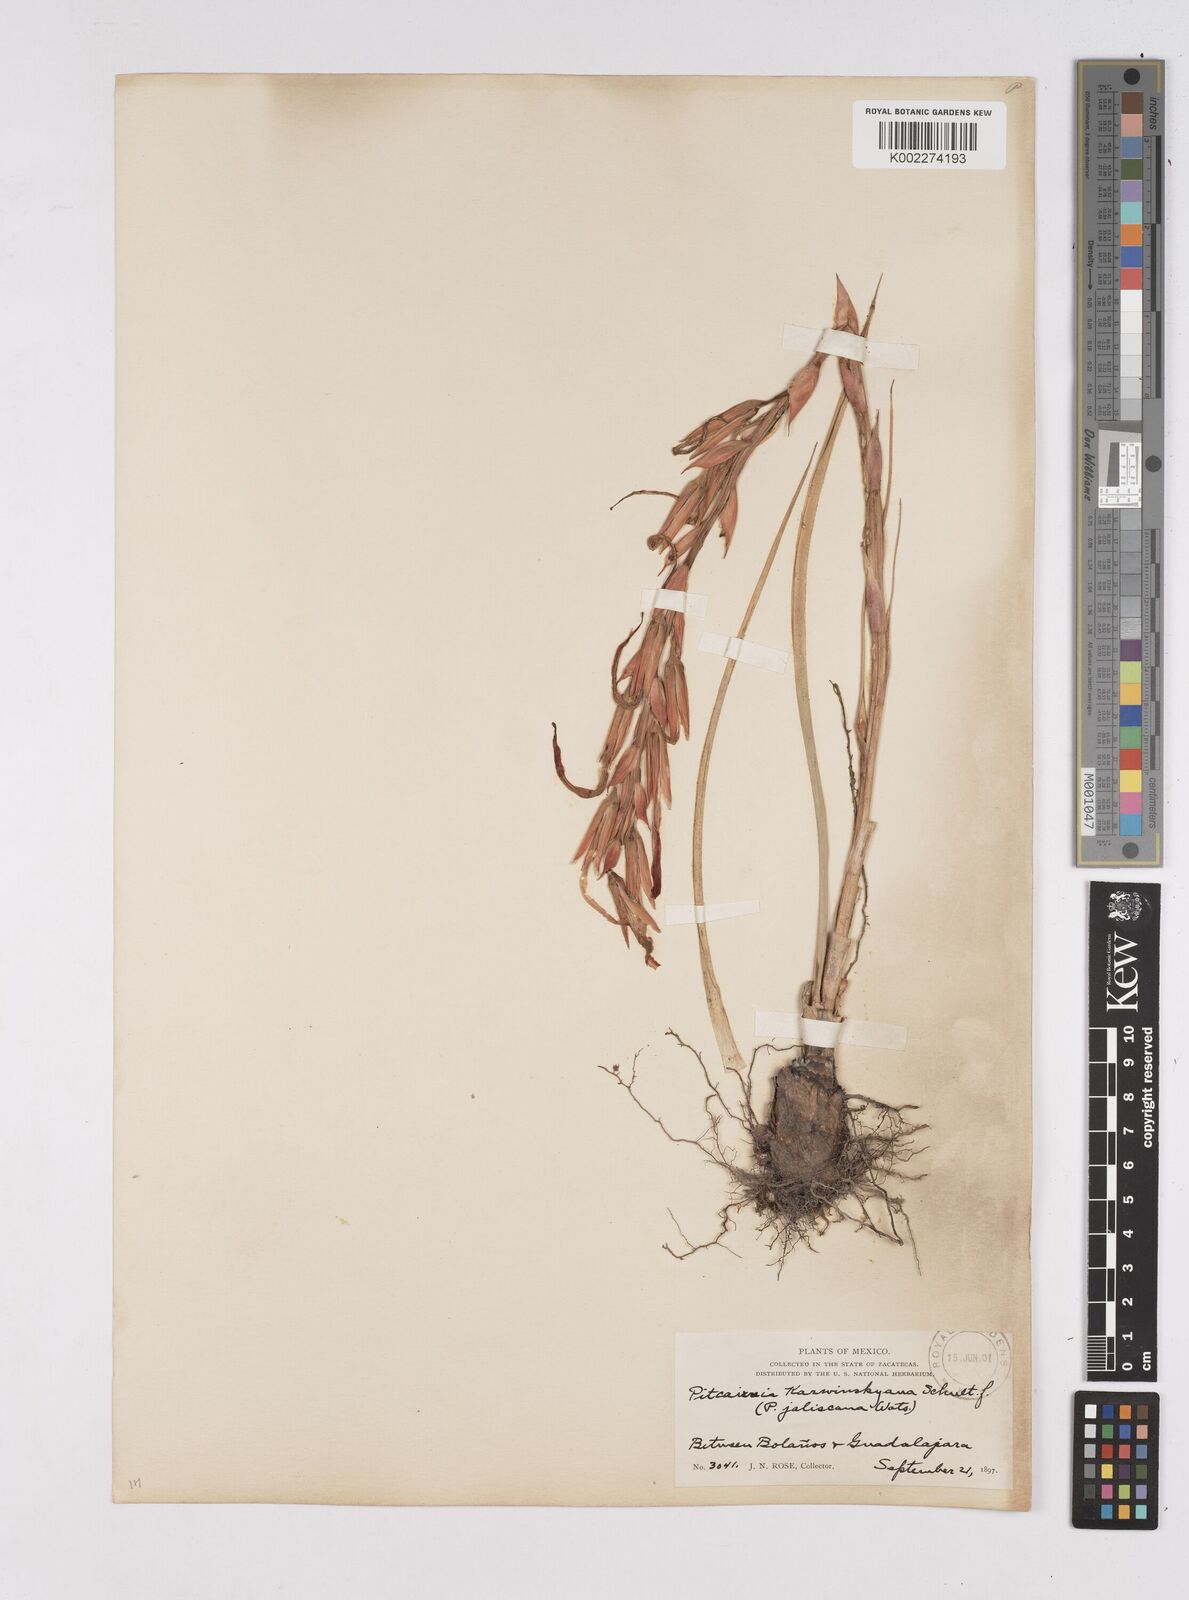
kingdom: Plantae
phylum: Tracheophyta
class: Liliopsida
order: Poales
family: Bromeliaceae
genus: Pitcairnia
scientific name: Pitcairnia karwinskyana
